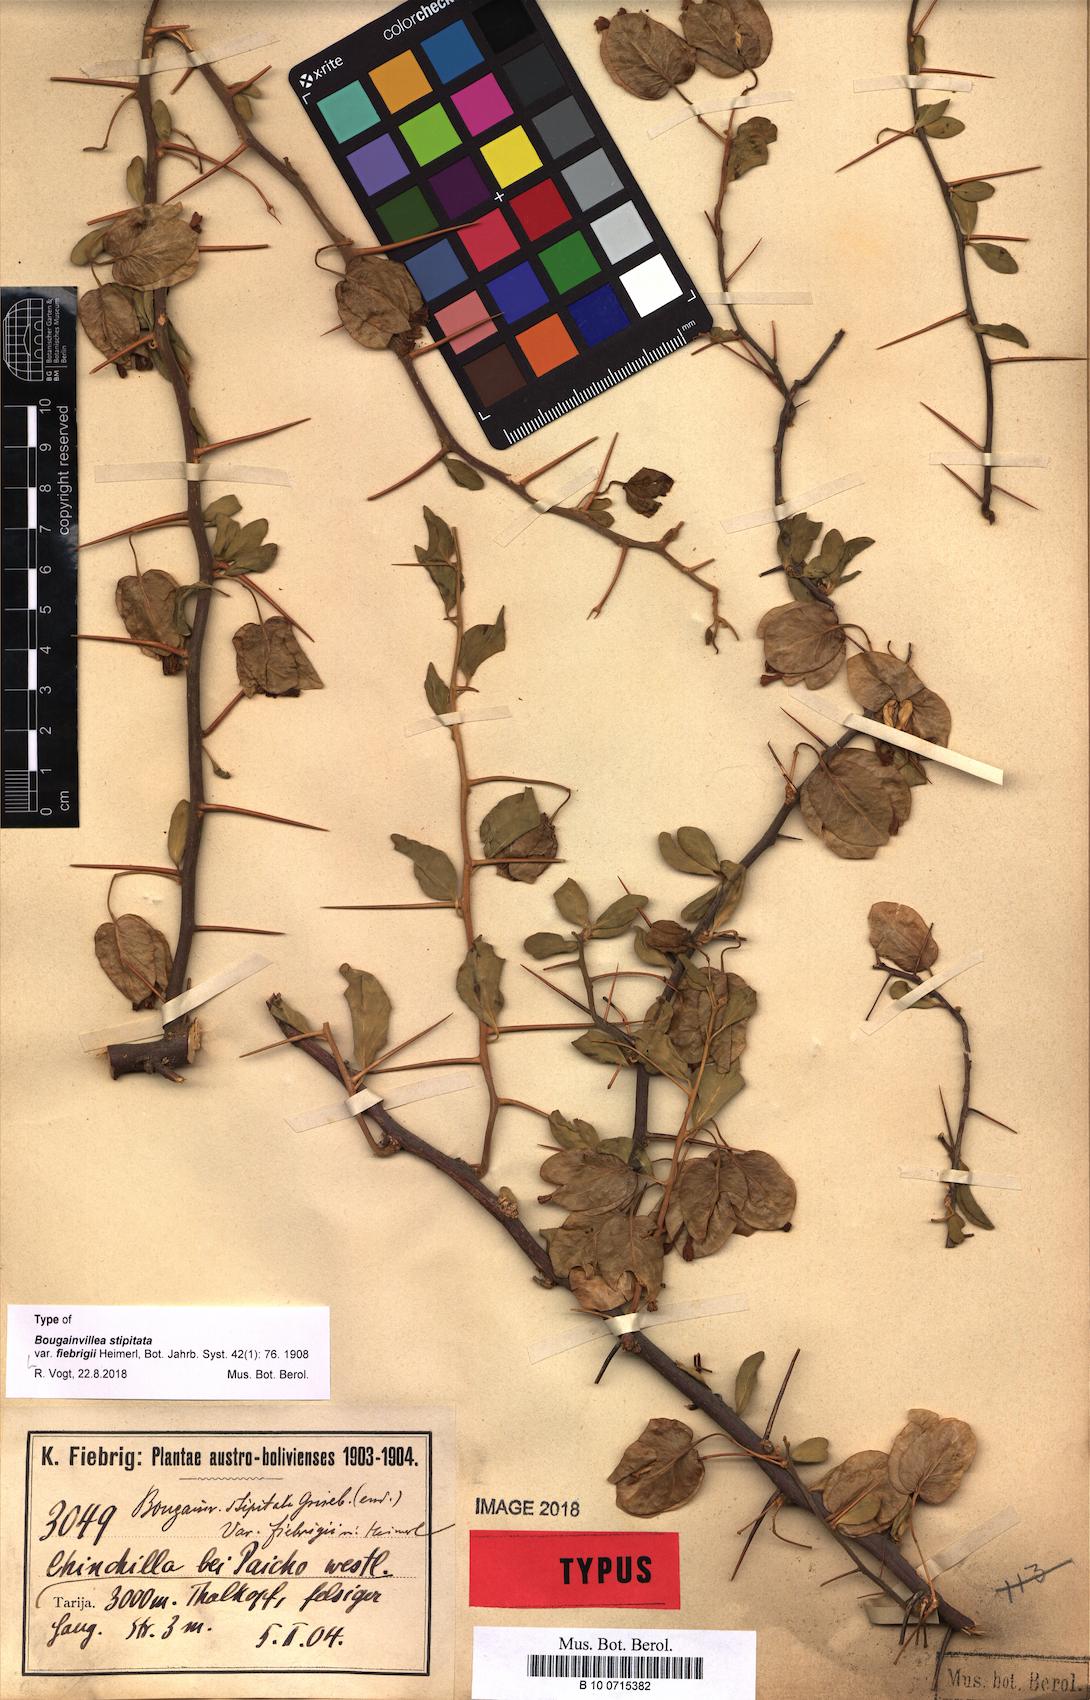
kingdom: Plantae
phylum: Tracheophyta
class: Magnoliopsida
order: Caryophyllales
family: Nyctaginaceae
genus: Bougainvillea
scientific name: Bougainvillea stipitata
